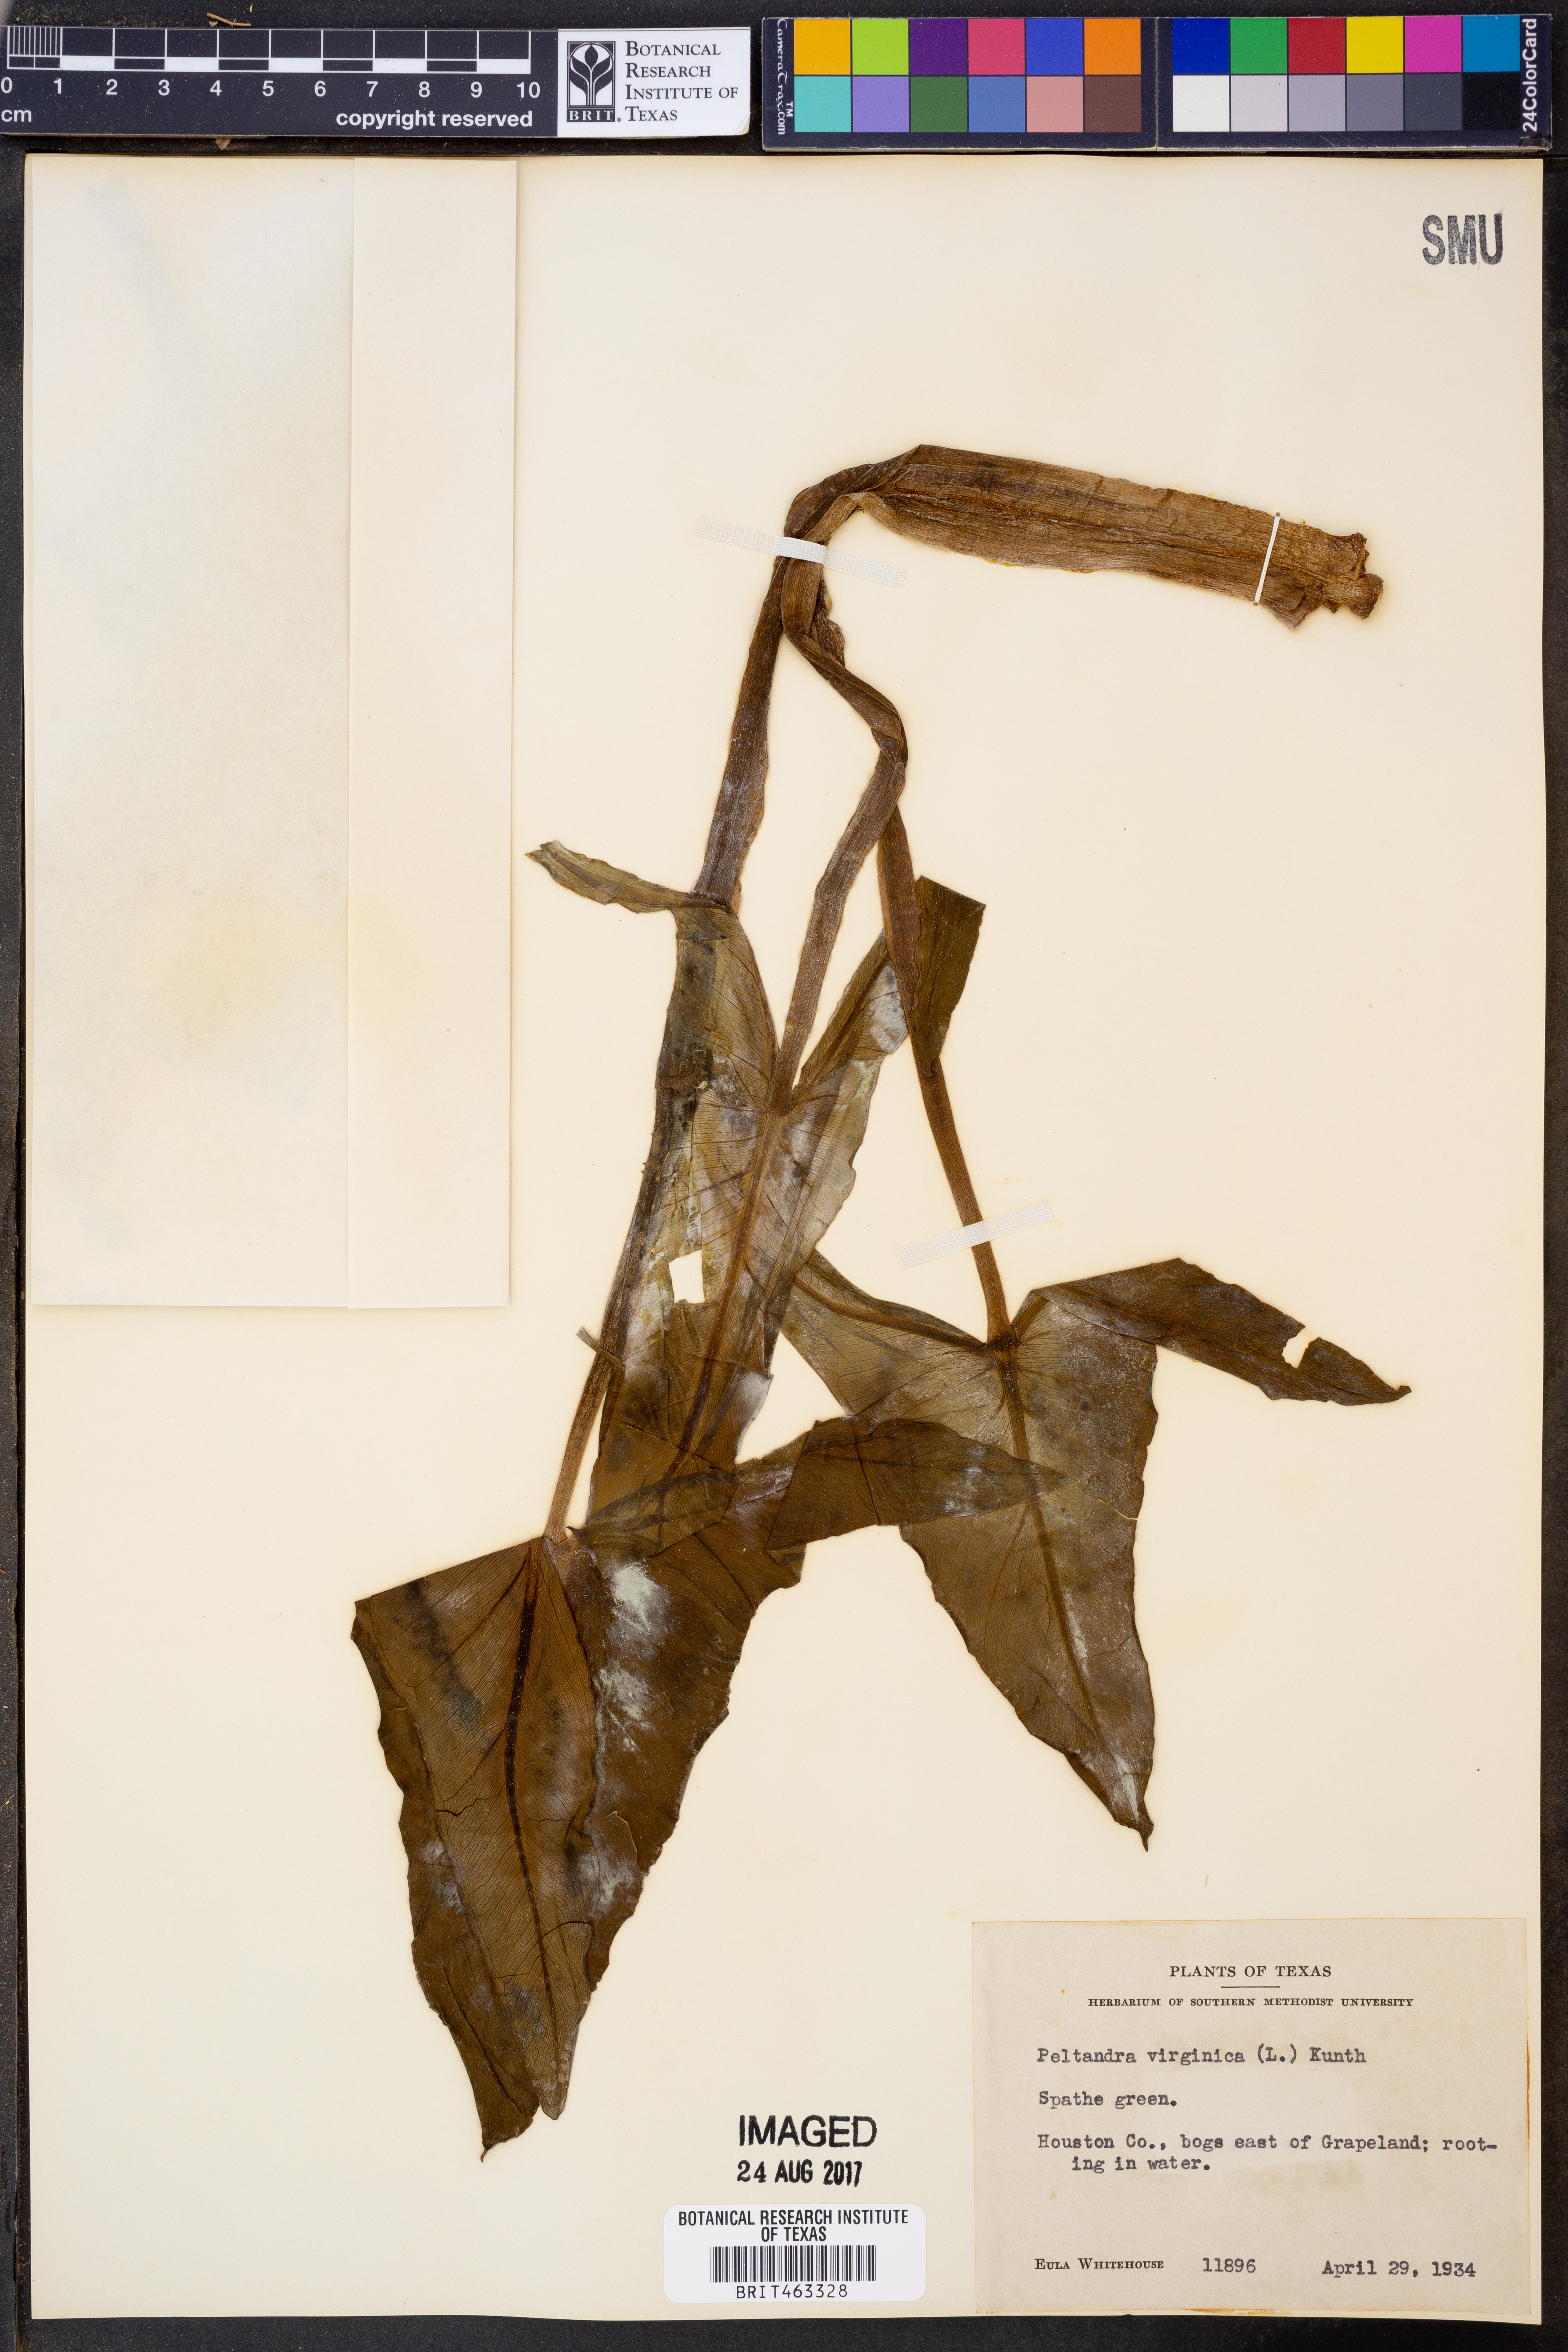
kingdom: Plantae
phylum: Tracheophyta
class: Liliopsida
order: Alismatales
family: Araceae
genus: Peltandra
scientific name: Peltandra virginica
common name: Arrow arum
